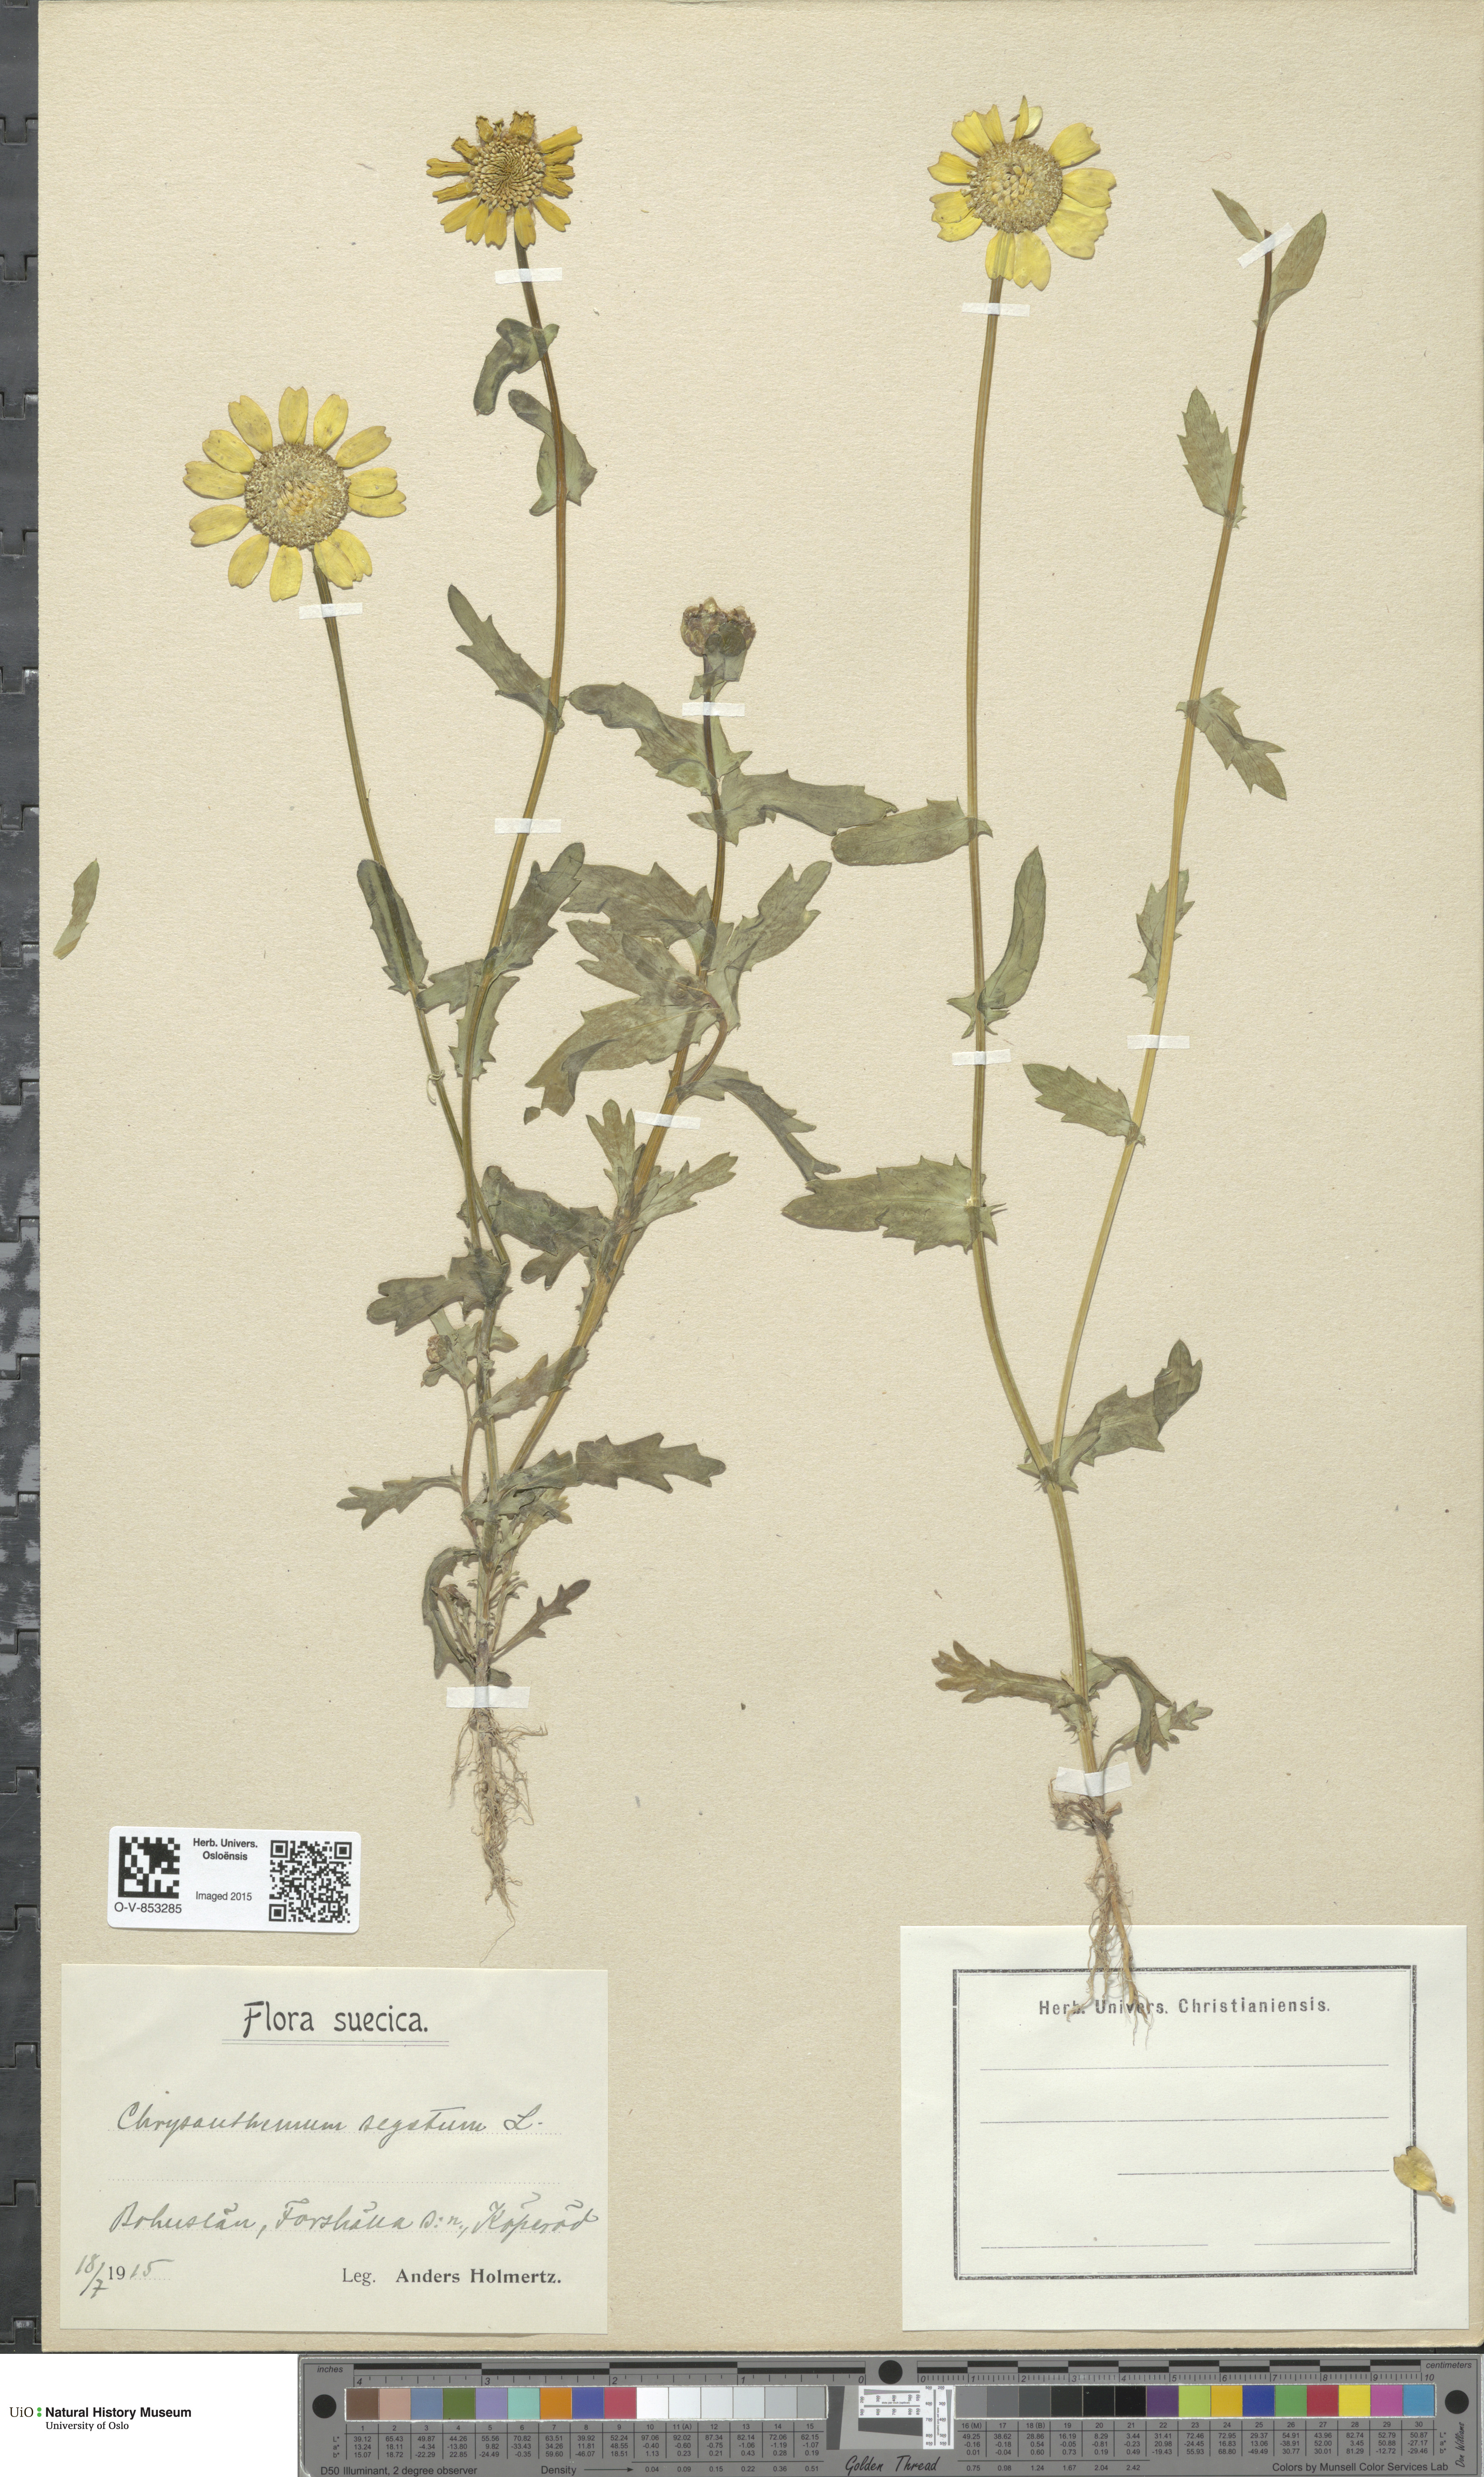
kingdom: Plantae
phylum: Tracheophyta
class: Magnoliopsida
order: Asterales
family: Asteraceae
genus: Glebionis
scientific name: Glebionis segetum
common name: Corndaisy
